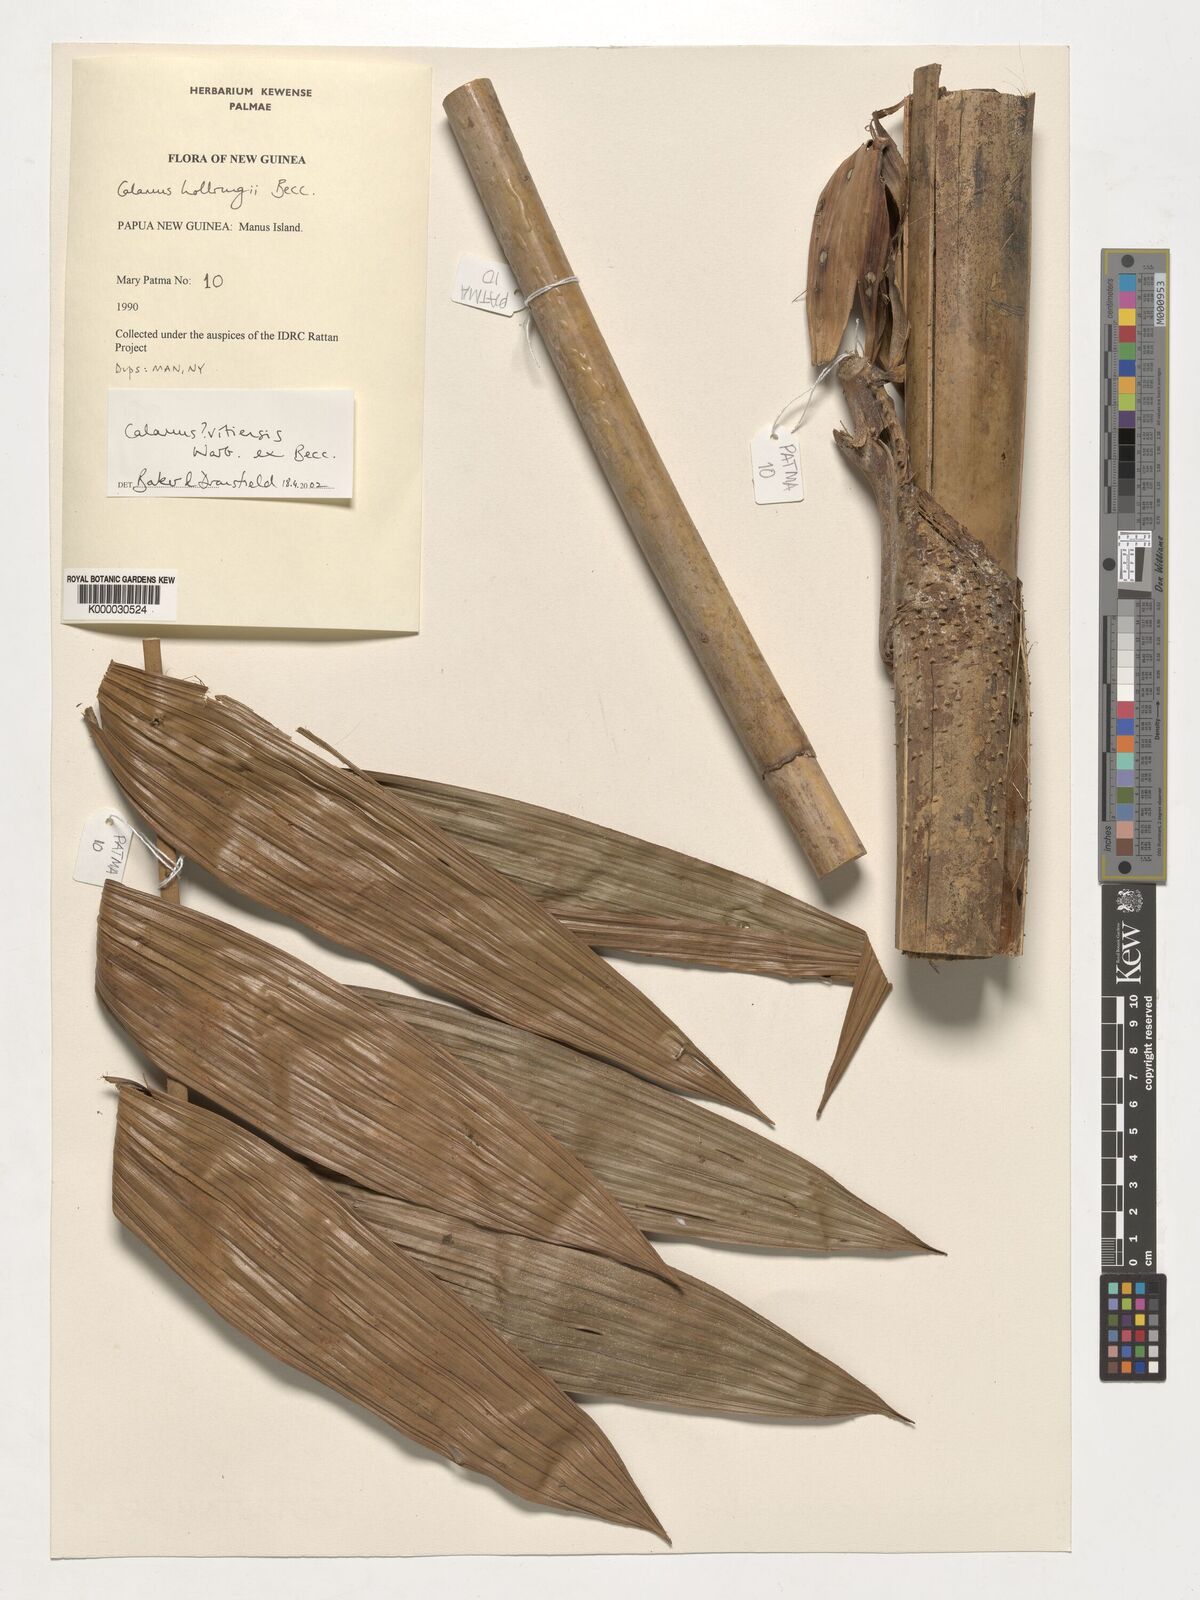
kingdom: Plantae
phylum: Tracheophyta
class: Liliopsida
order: Arecales
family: Arecaceae
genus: Calamus
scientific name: Calamus
